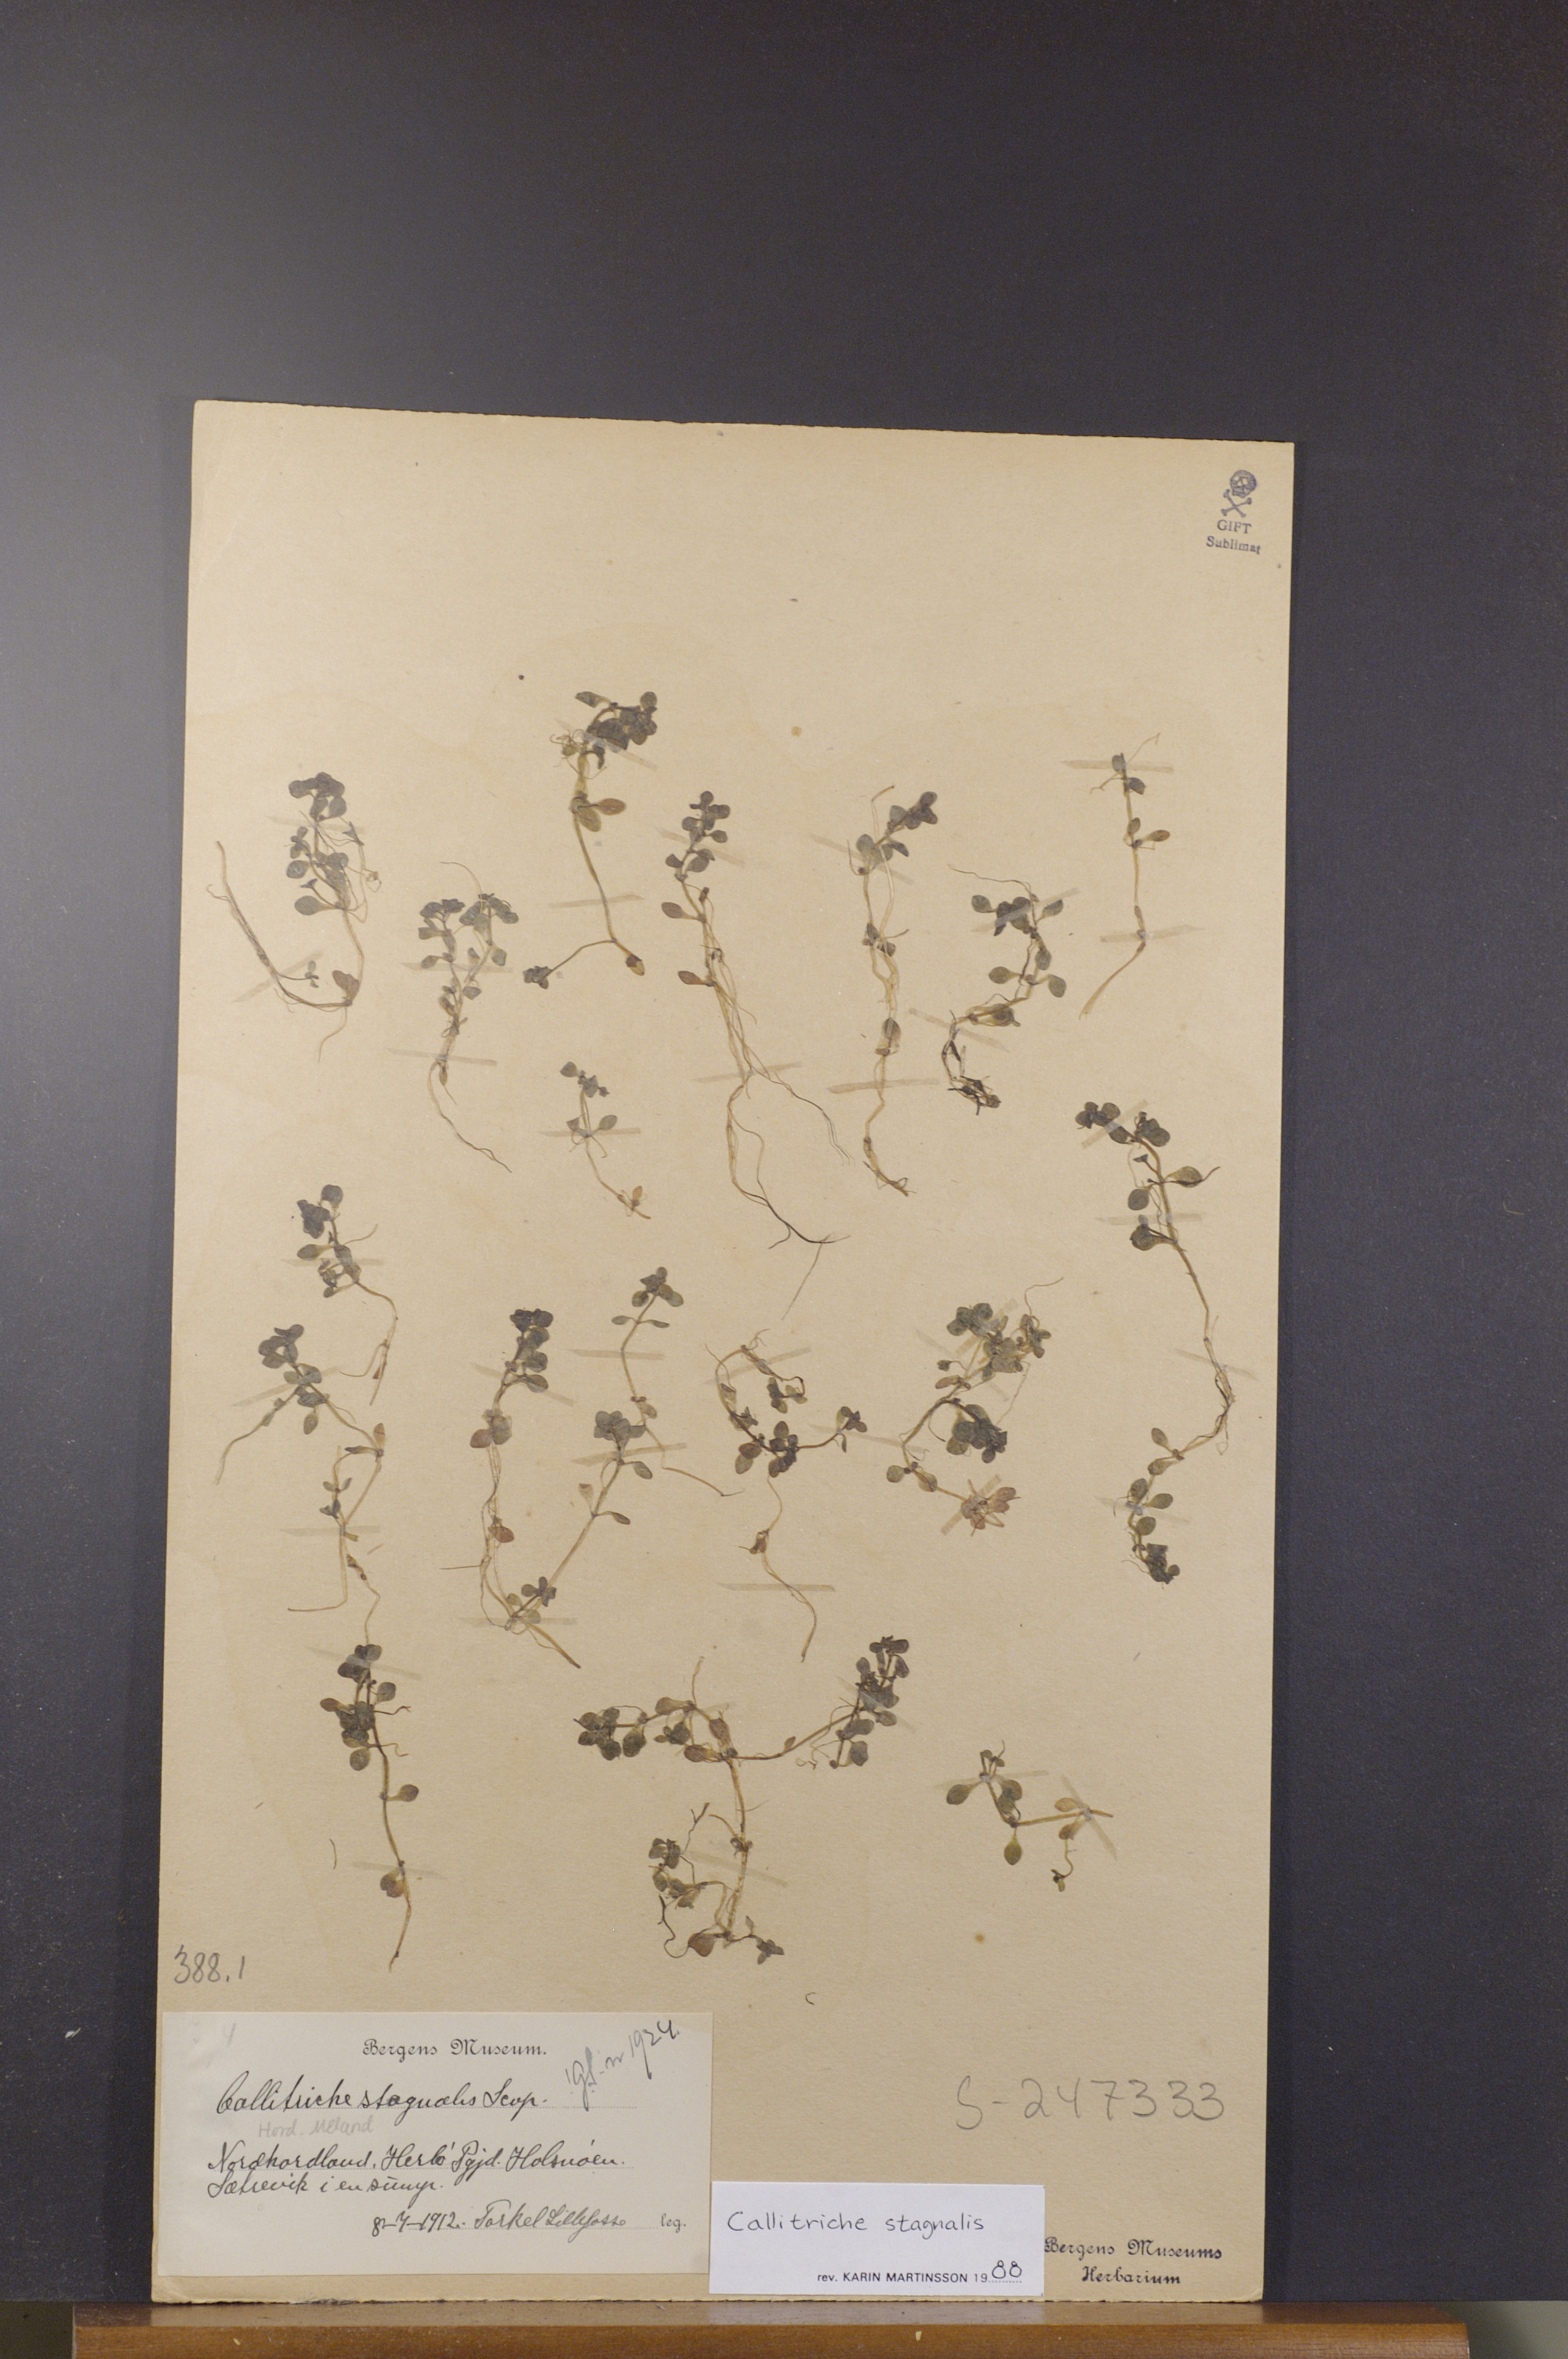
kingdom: Plantae
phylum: Tracheophyta
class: Magnoliopsida
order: Lamiales
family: Plantaginaceae
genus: Callitriche
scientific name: Callitriche stagnalis
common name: Common water-starwort
